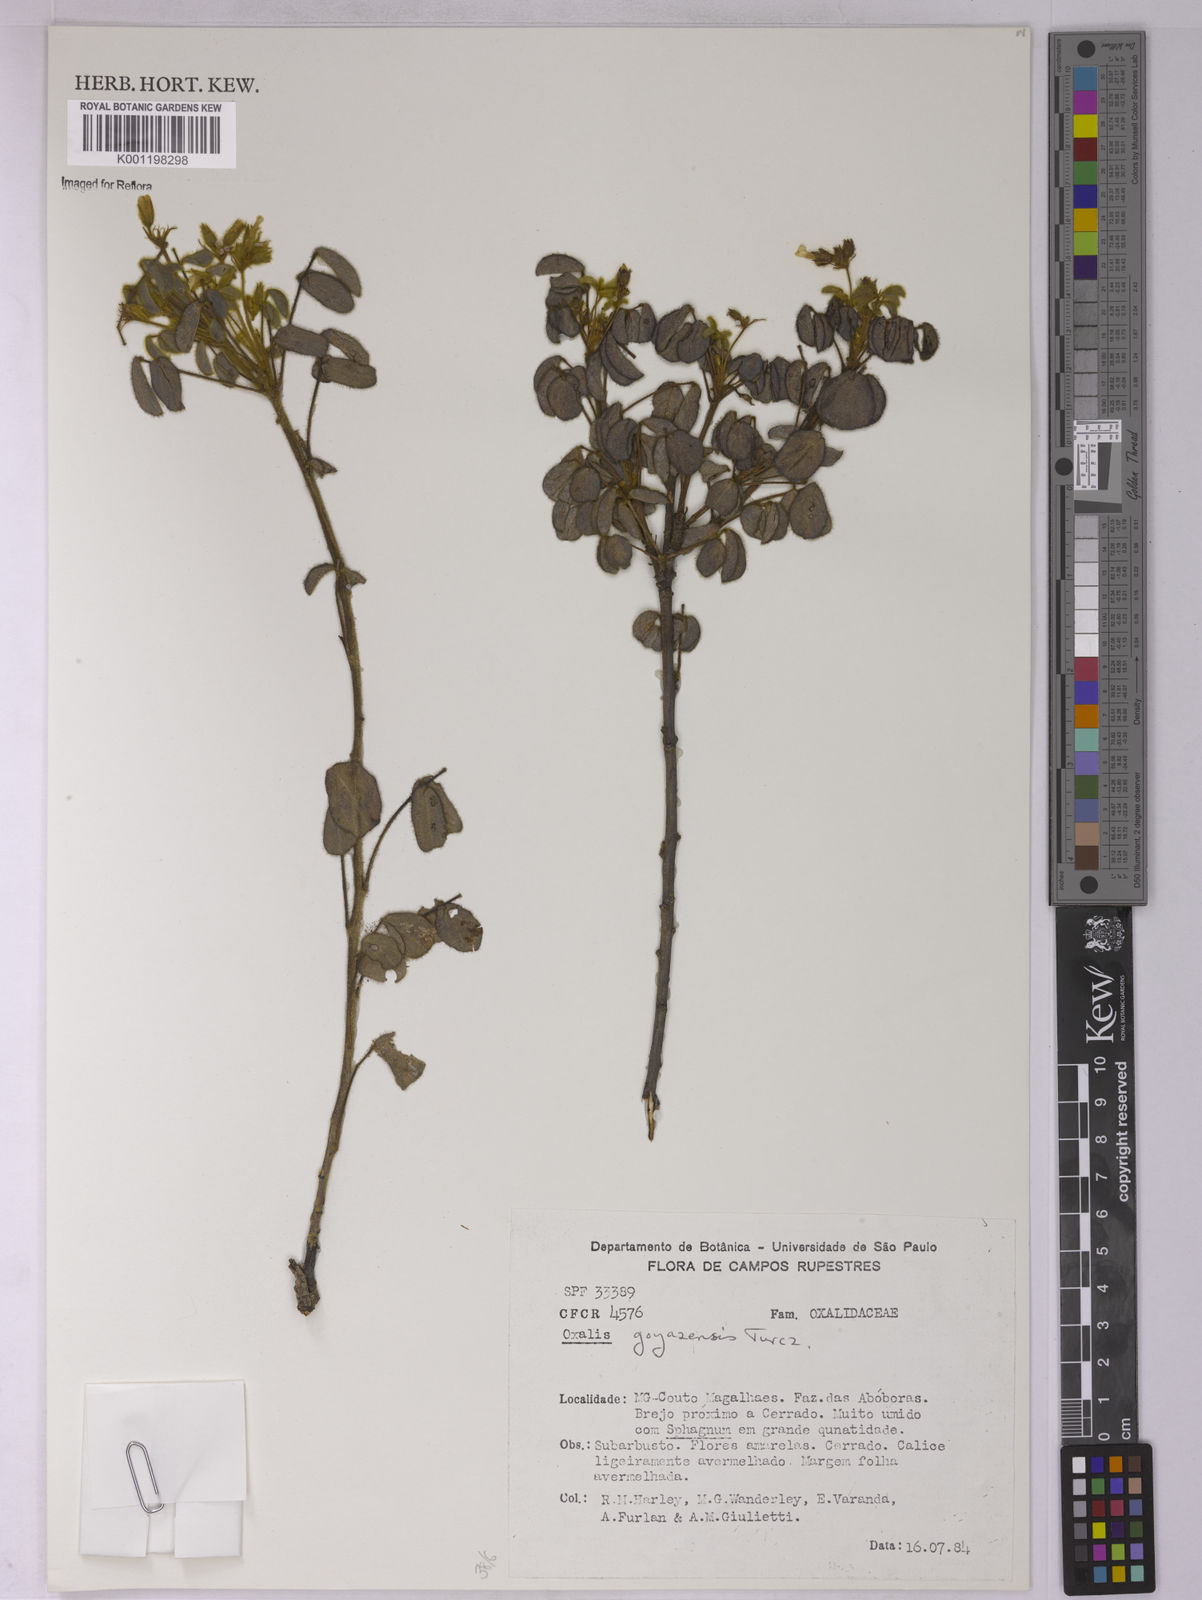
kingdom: Plantae
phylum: Tracheophyta
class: Magnoliopsida
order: Oxalidales
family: Oxalidaceae
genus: Oxalis
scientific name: Oxalis goyazensis
